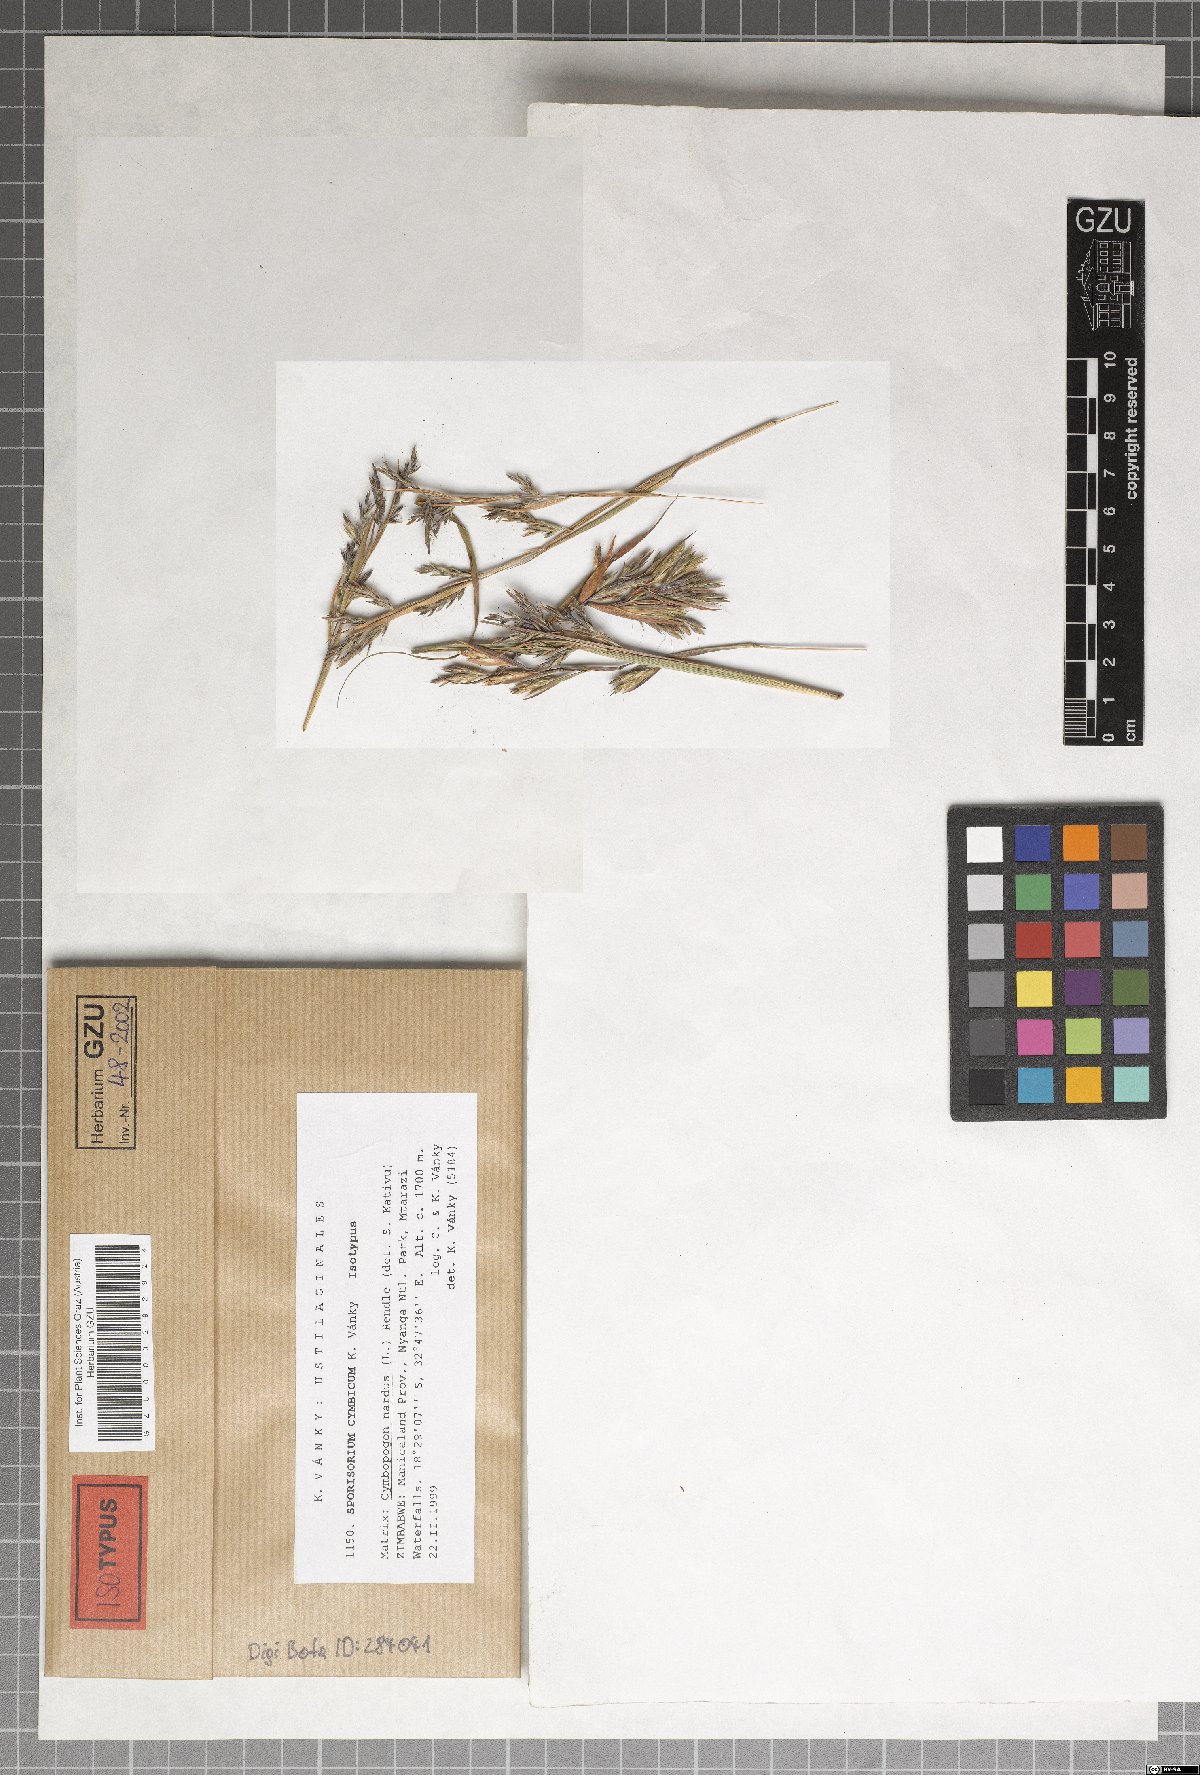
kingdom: Fungi
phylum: Basidiomycota
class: Ustilaginomycetes
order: Ustilaginales
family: Ustilaginaceae
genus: Sporisorium
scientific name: Sporisorium cymbicum
